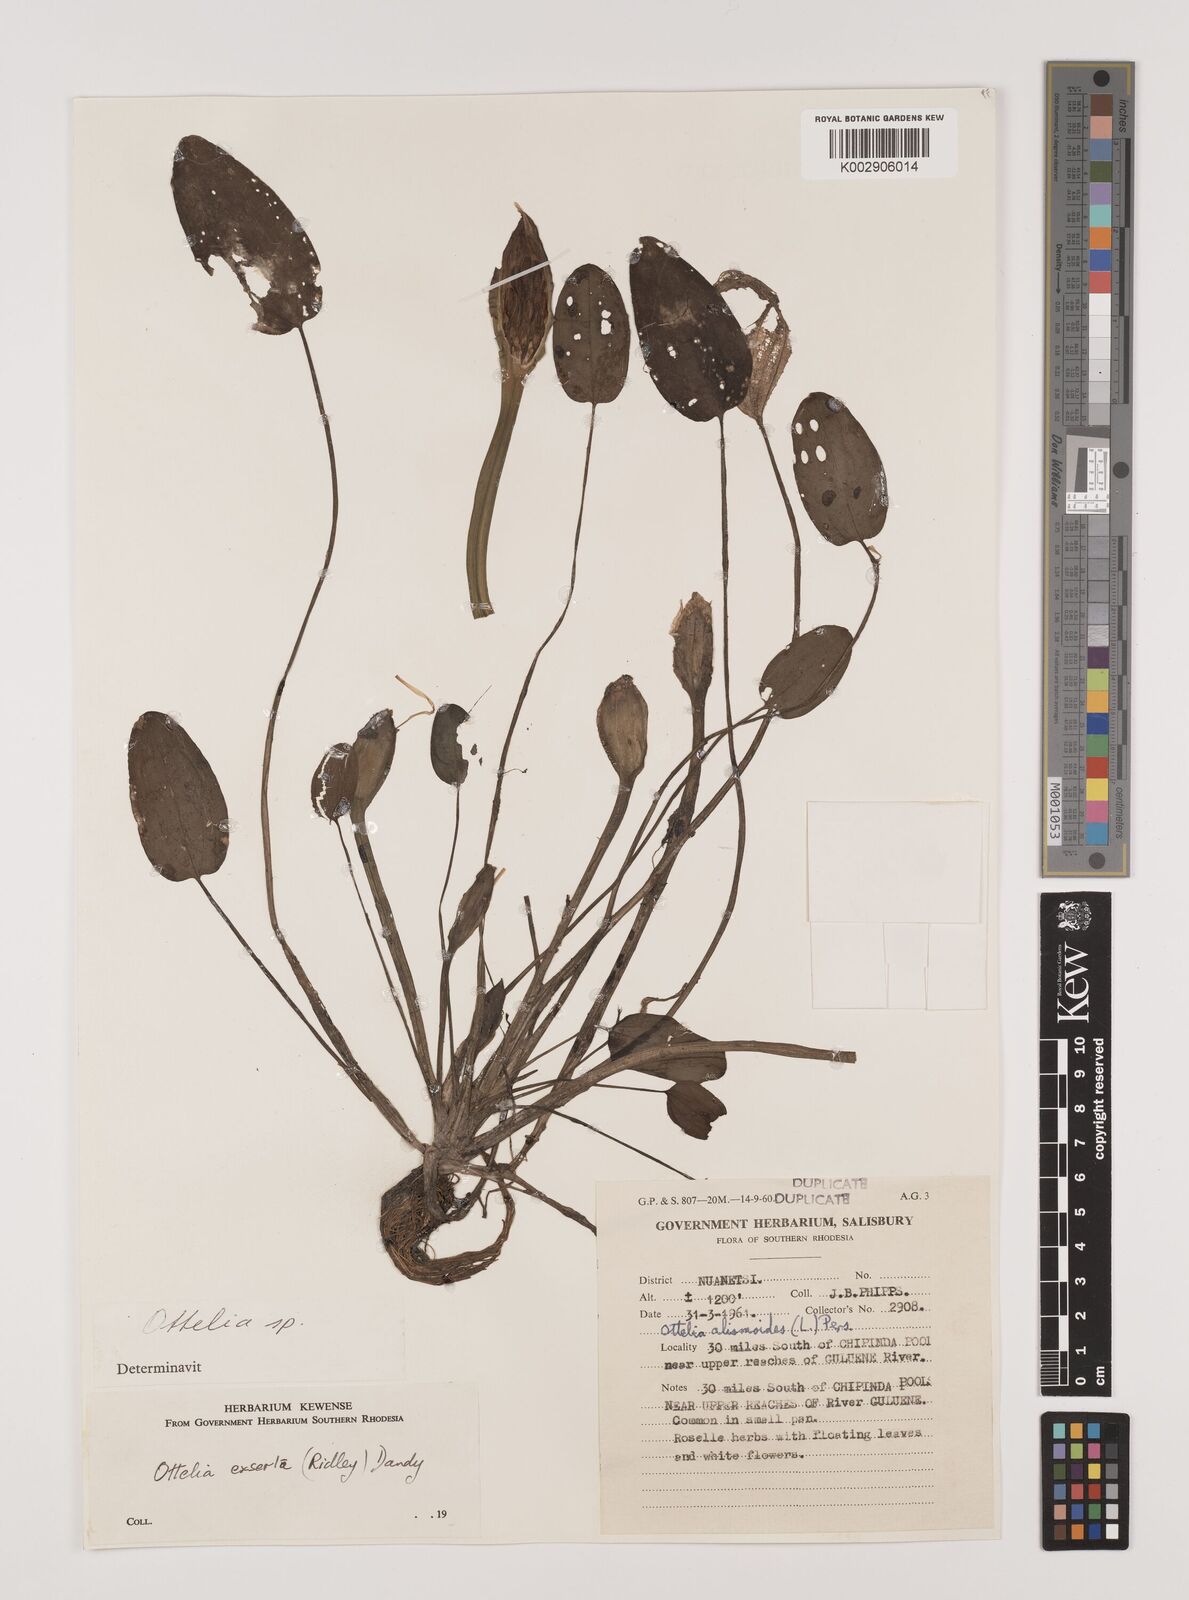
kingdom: Plantae
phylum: Tracheophyta
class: Liliopsida
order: Alismatales
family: Hydrocharitaceae
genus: Ottelia
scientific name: Ottelia exserta
